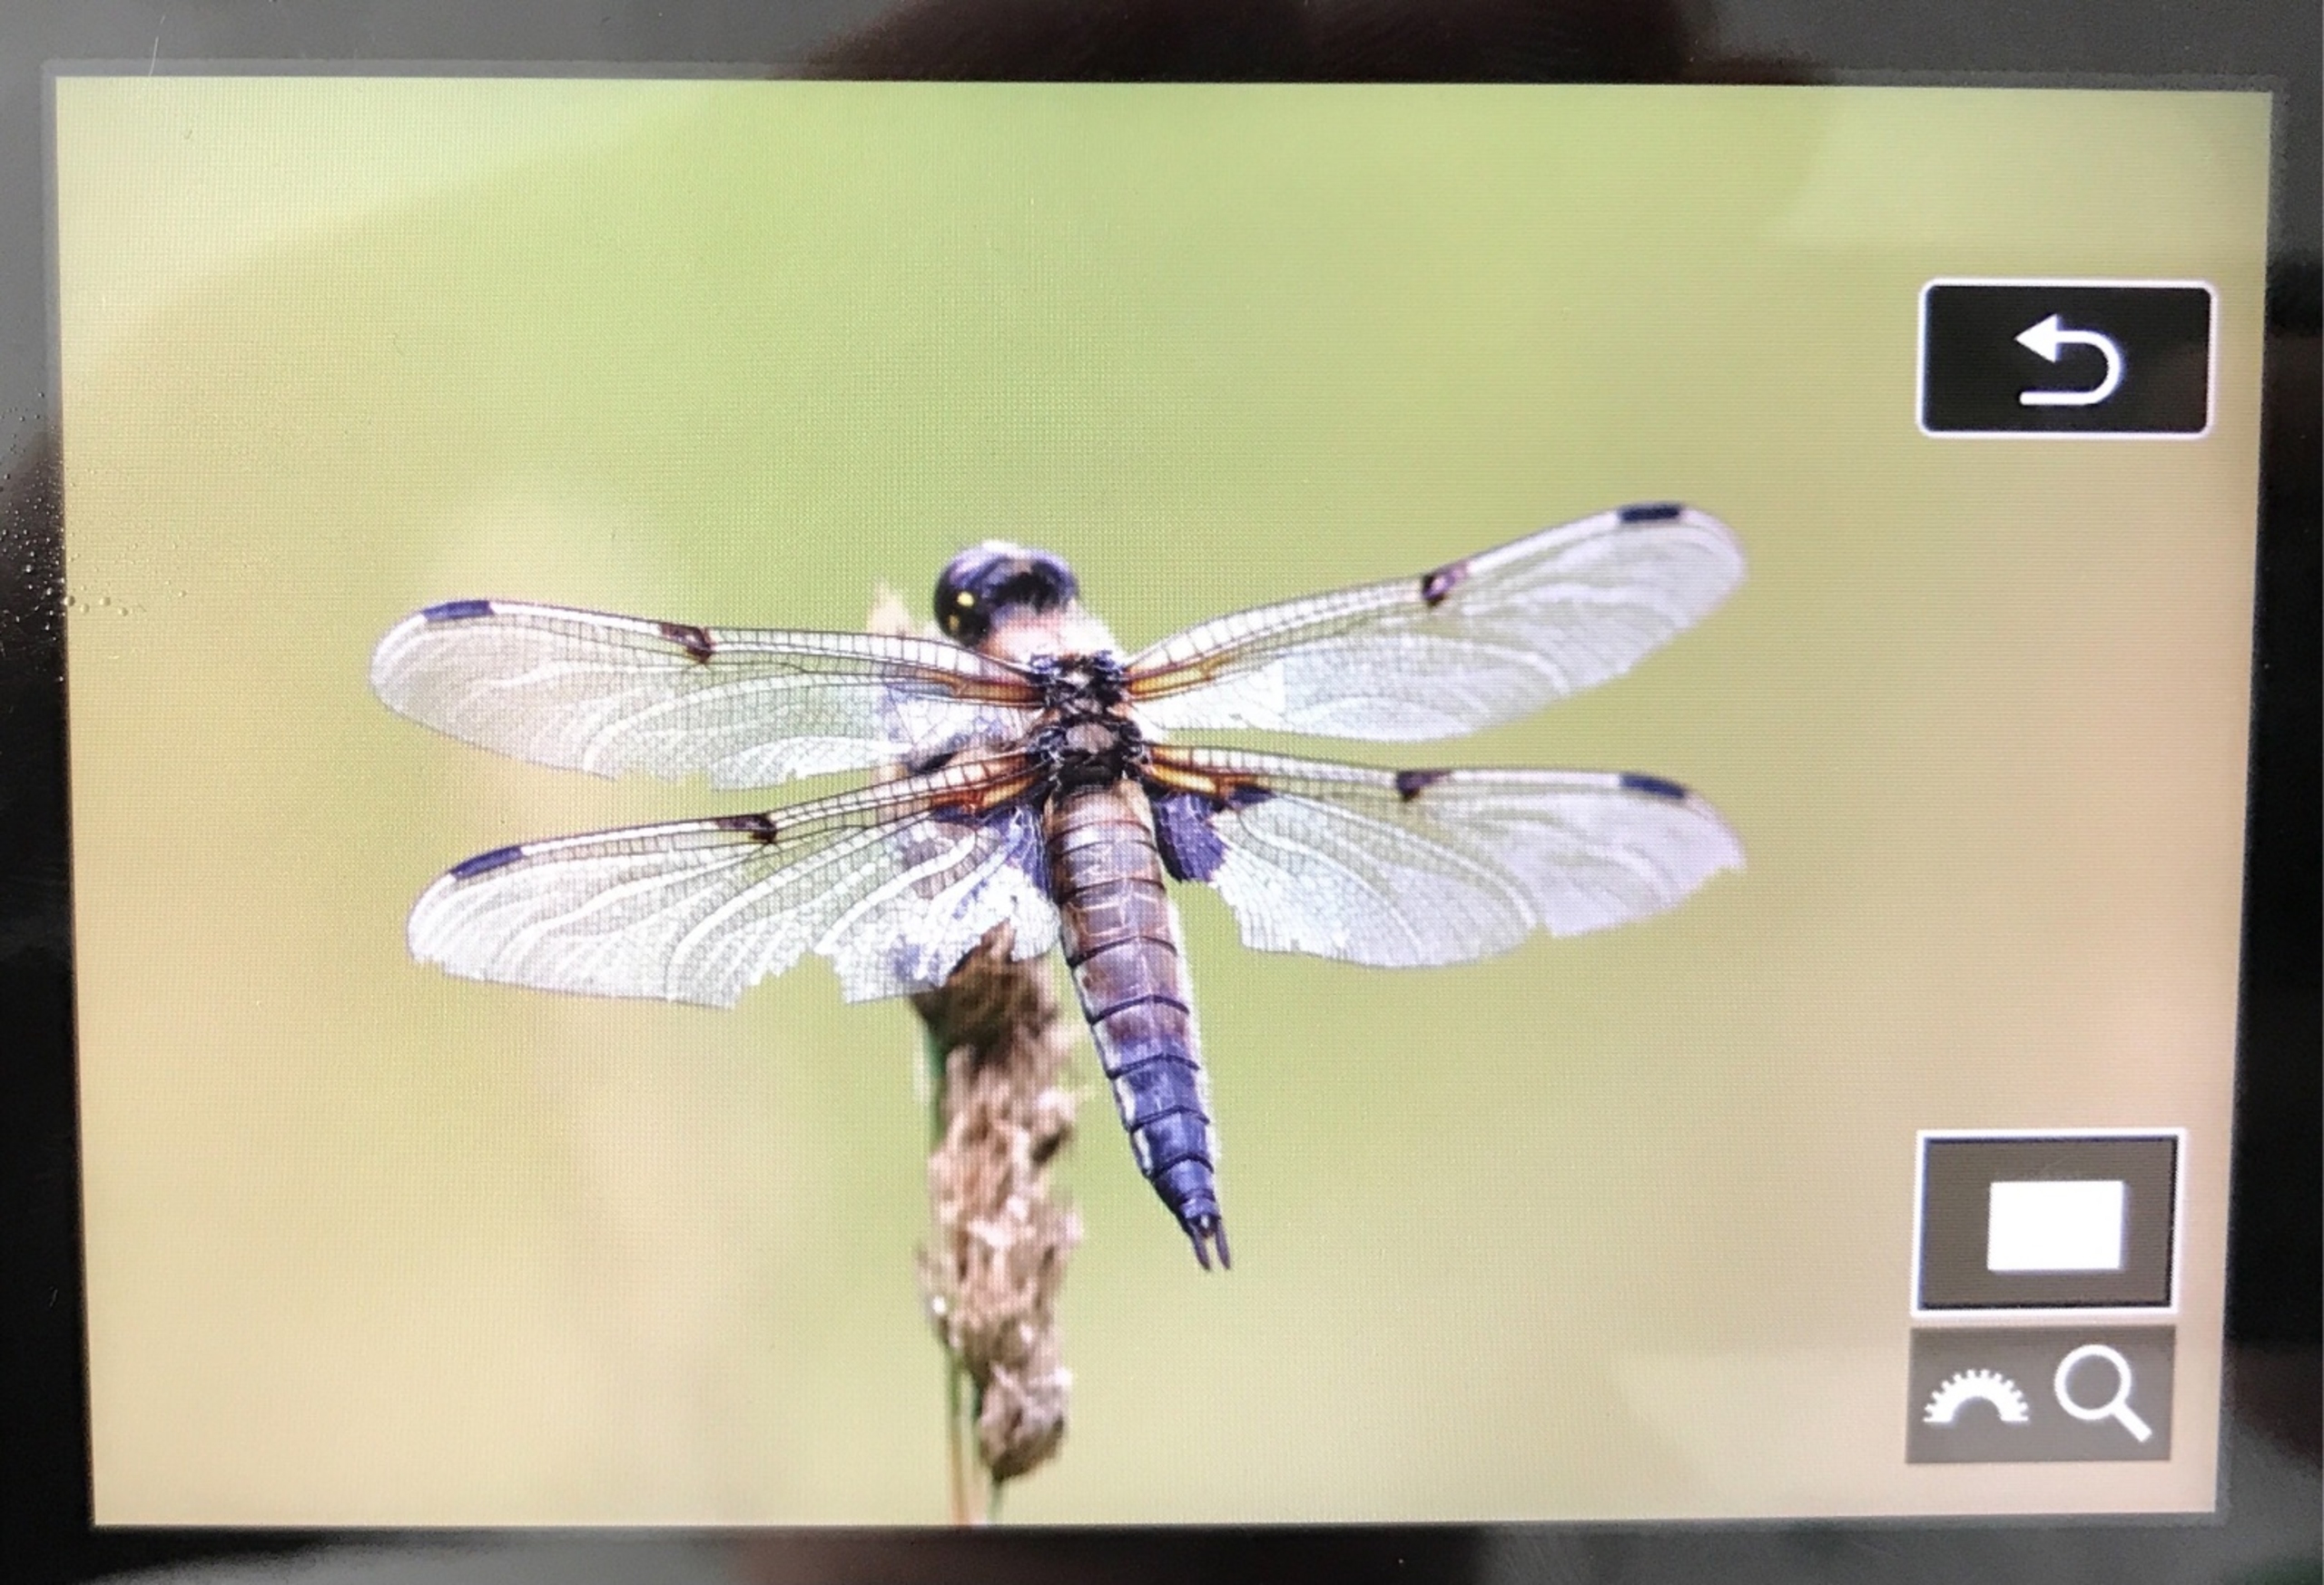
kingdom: Animalia
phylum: Arthropoda
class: Insecta
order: Odonata
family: Libellulidae
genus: Libellula
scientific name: Libellula quadrimaculata
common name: Fireplettet libel
